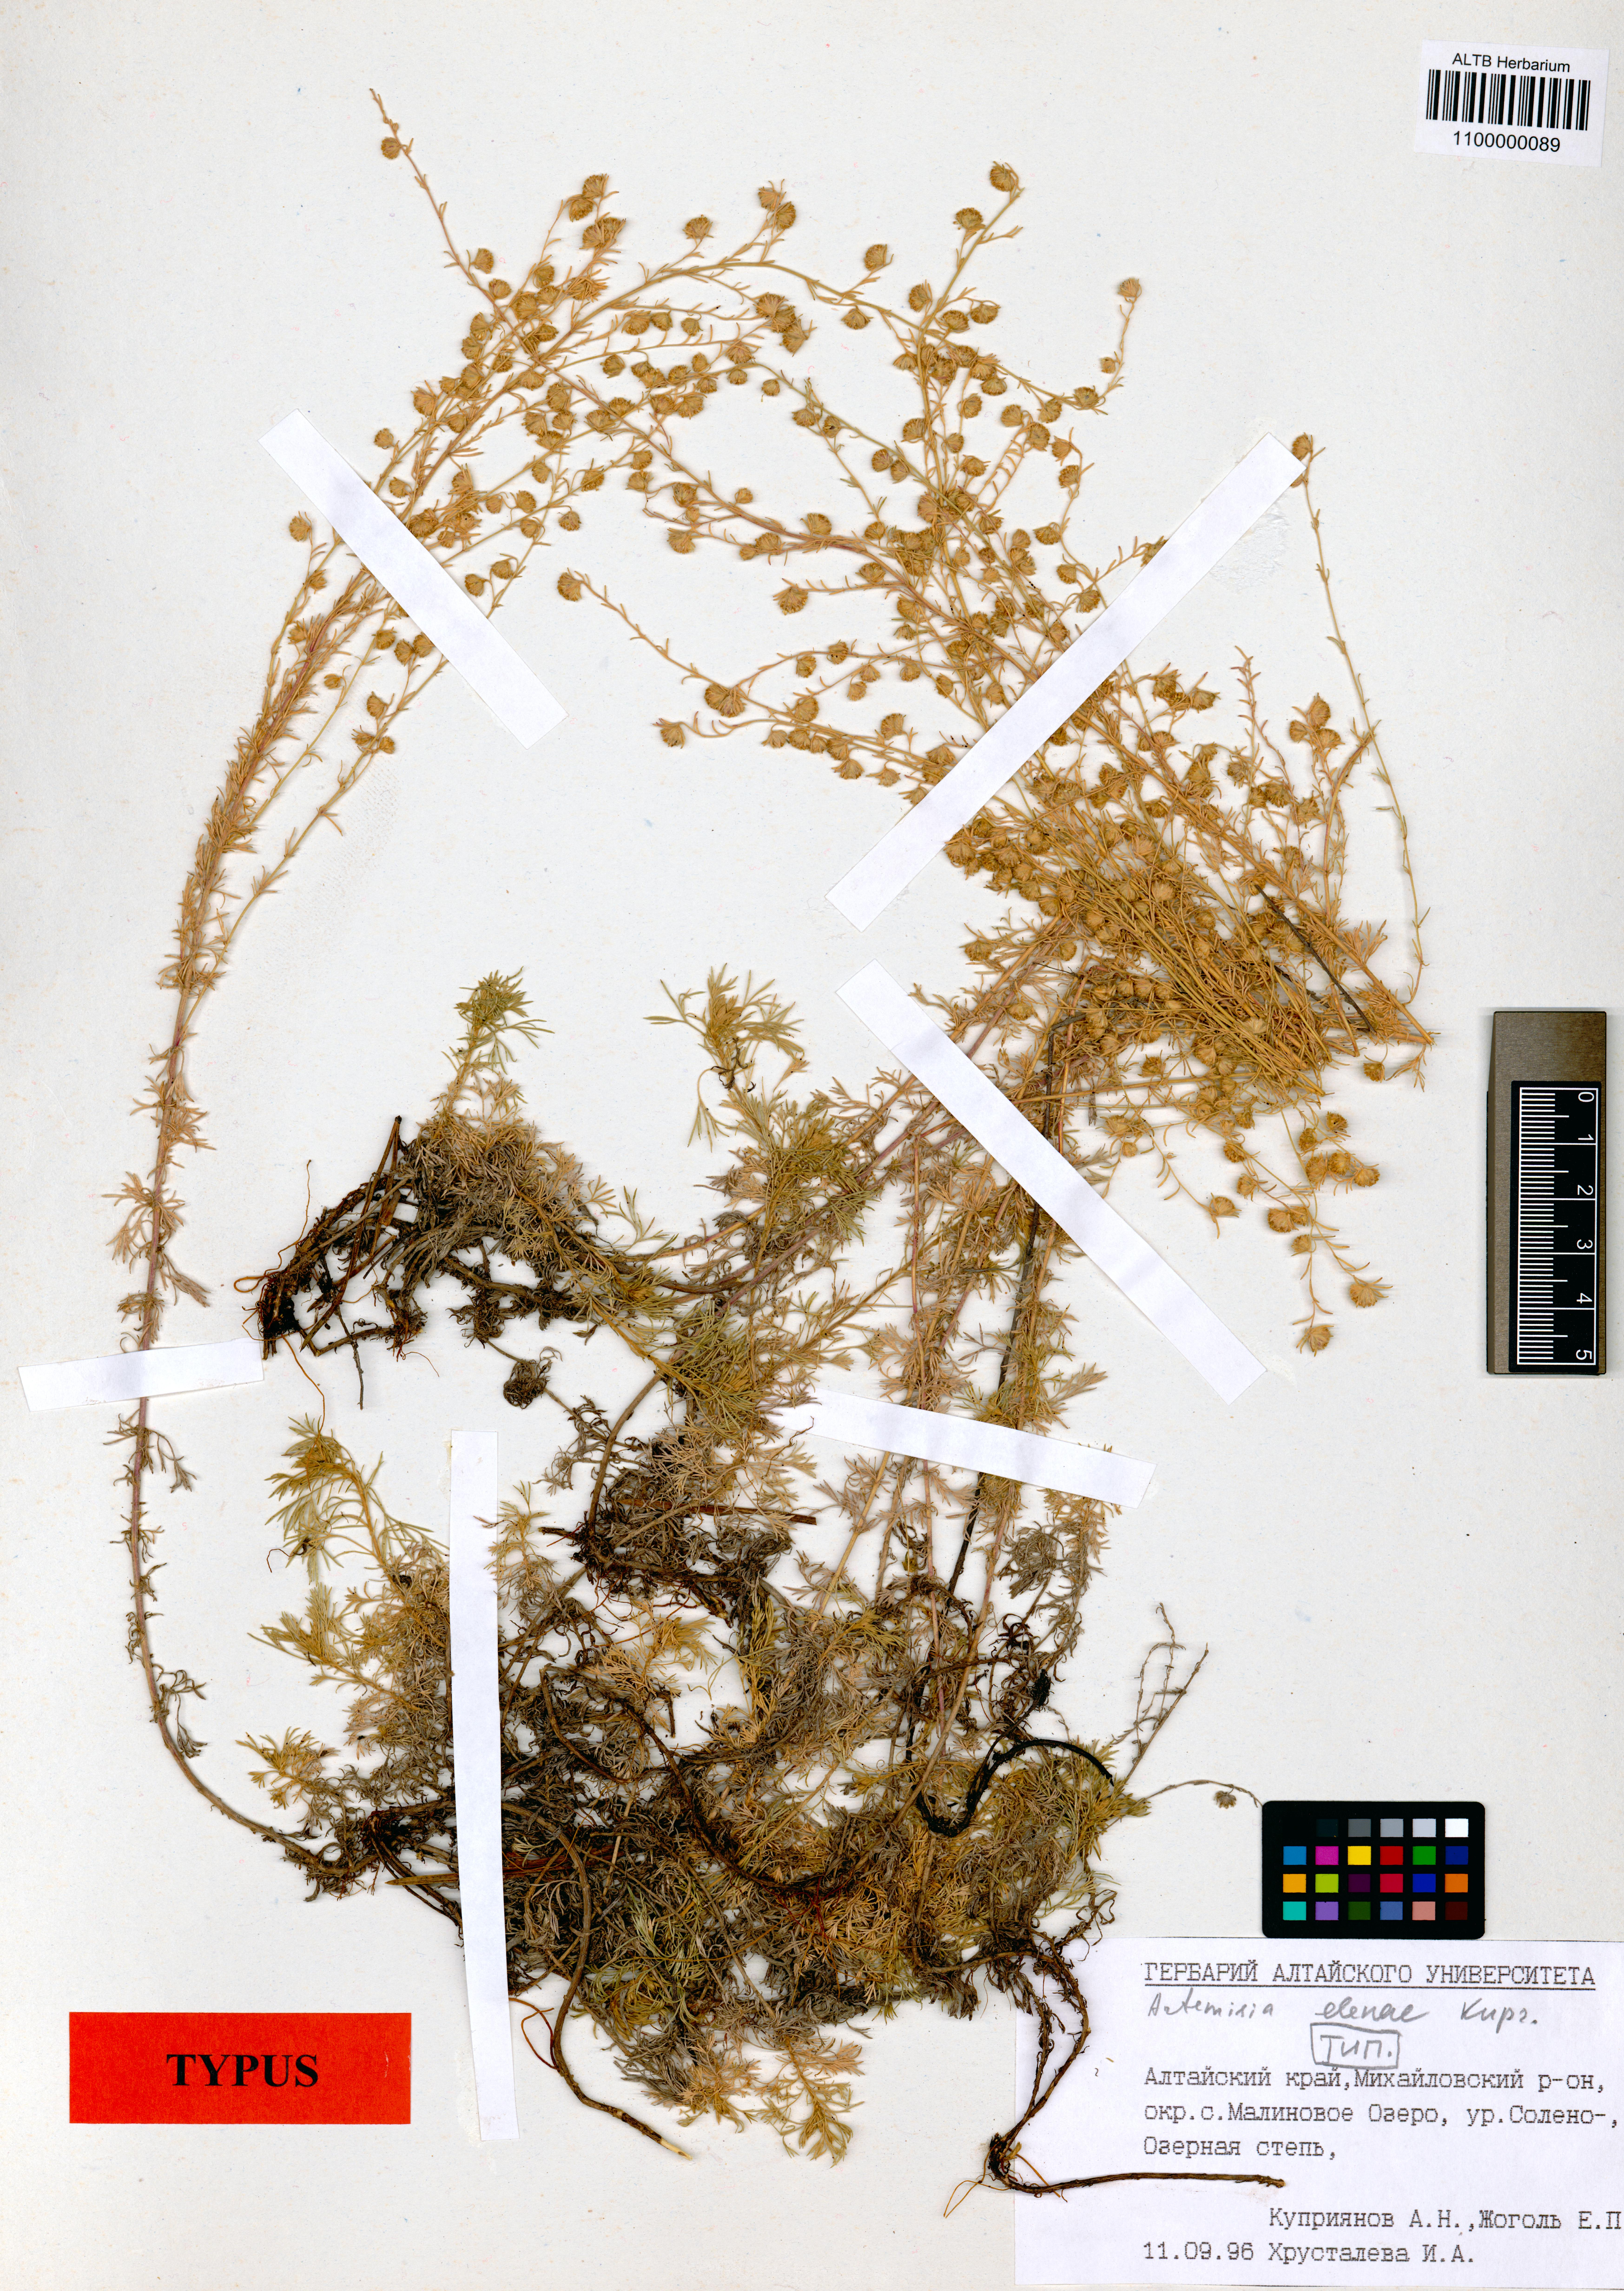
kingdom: Plantae
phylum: Tracheophyta
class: Magnoliopsida
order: Asterales
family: Asteraceae
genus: Artemisia
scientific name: Artemisia elenae
